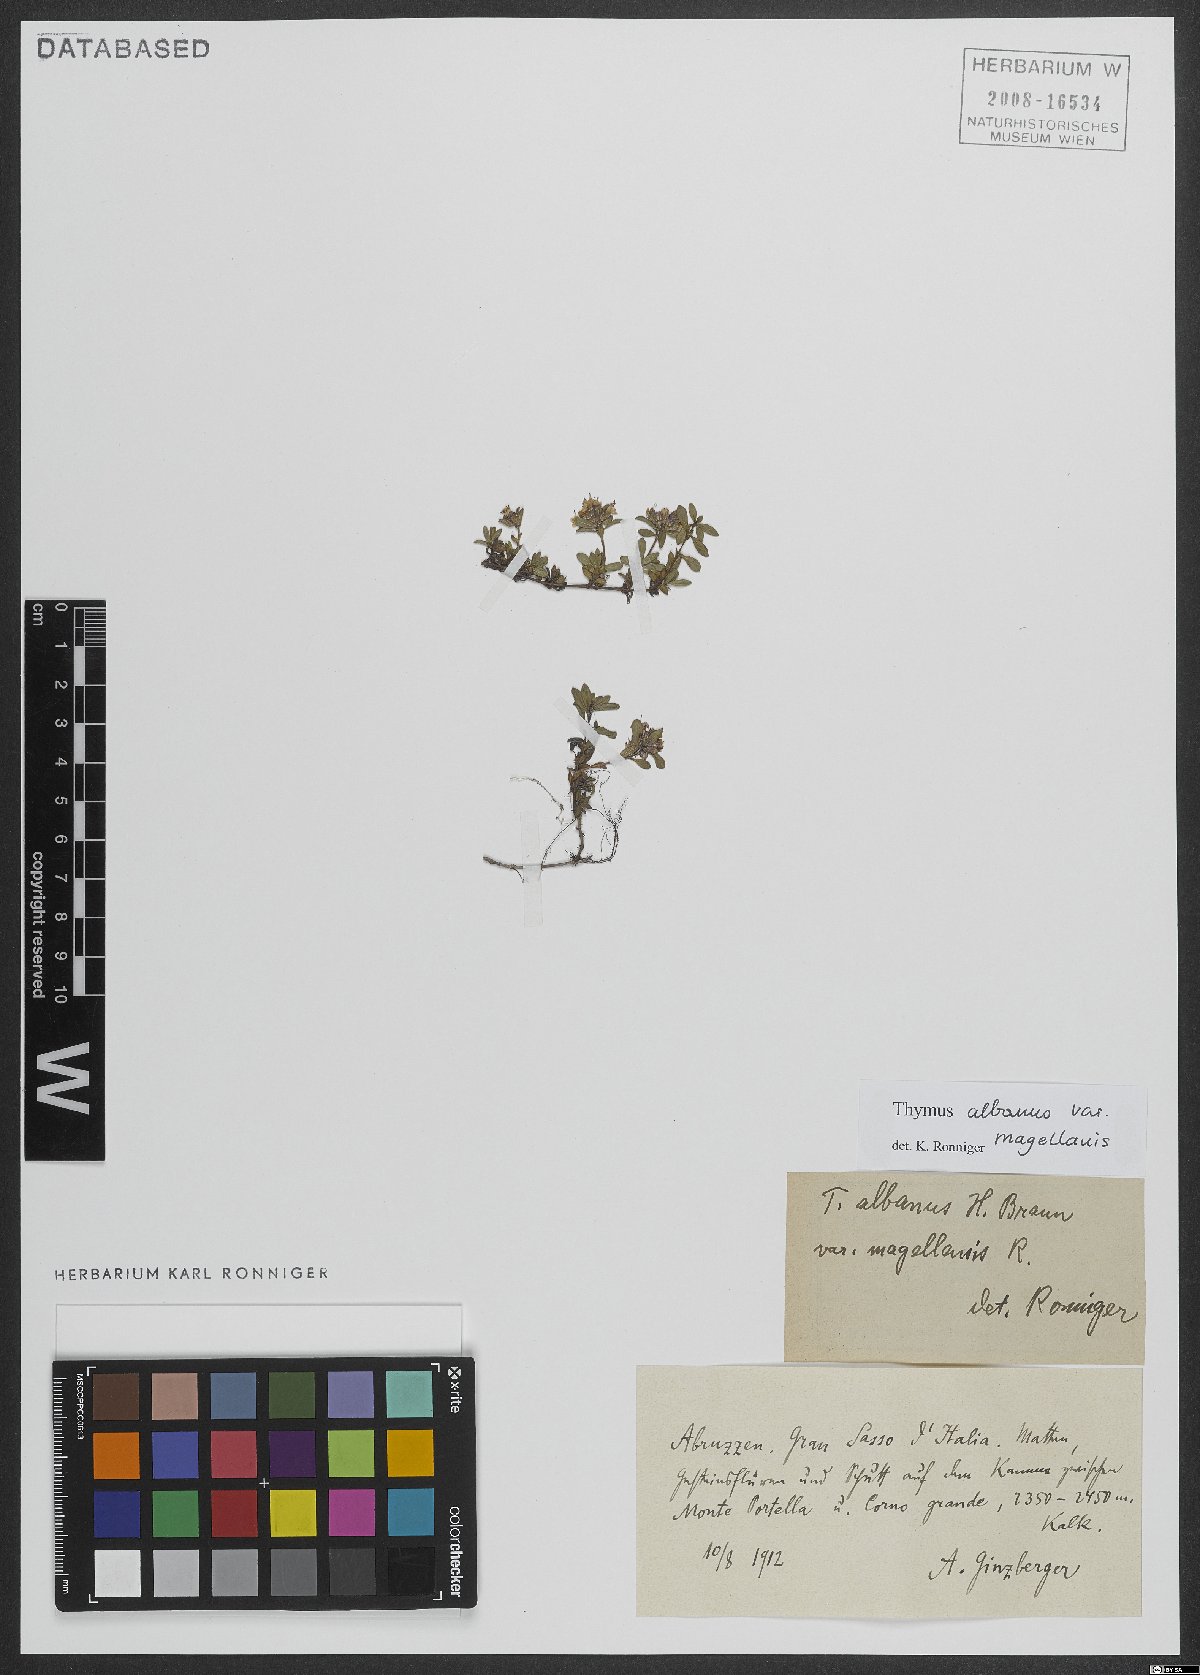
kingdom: Plantae
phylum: Tracheophyta
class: Magnoliopsida
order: Lamiales
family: Lamiaceae
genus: Thymus
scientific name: Thymus praecox
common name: Wild thyme
